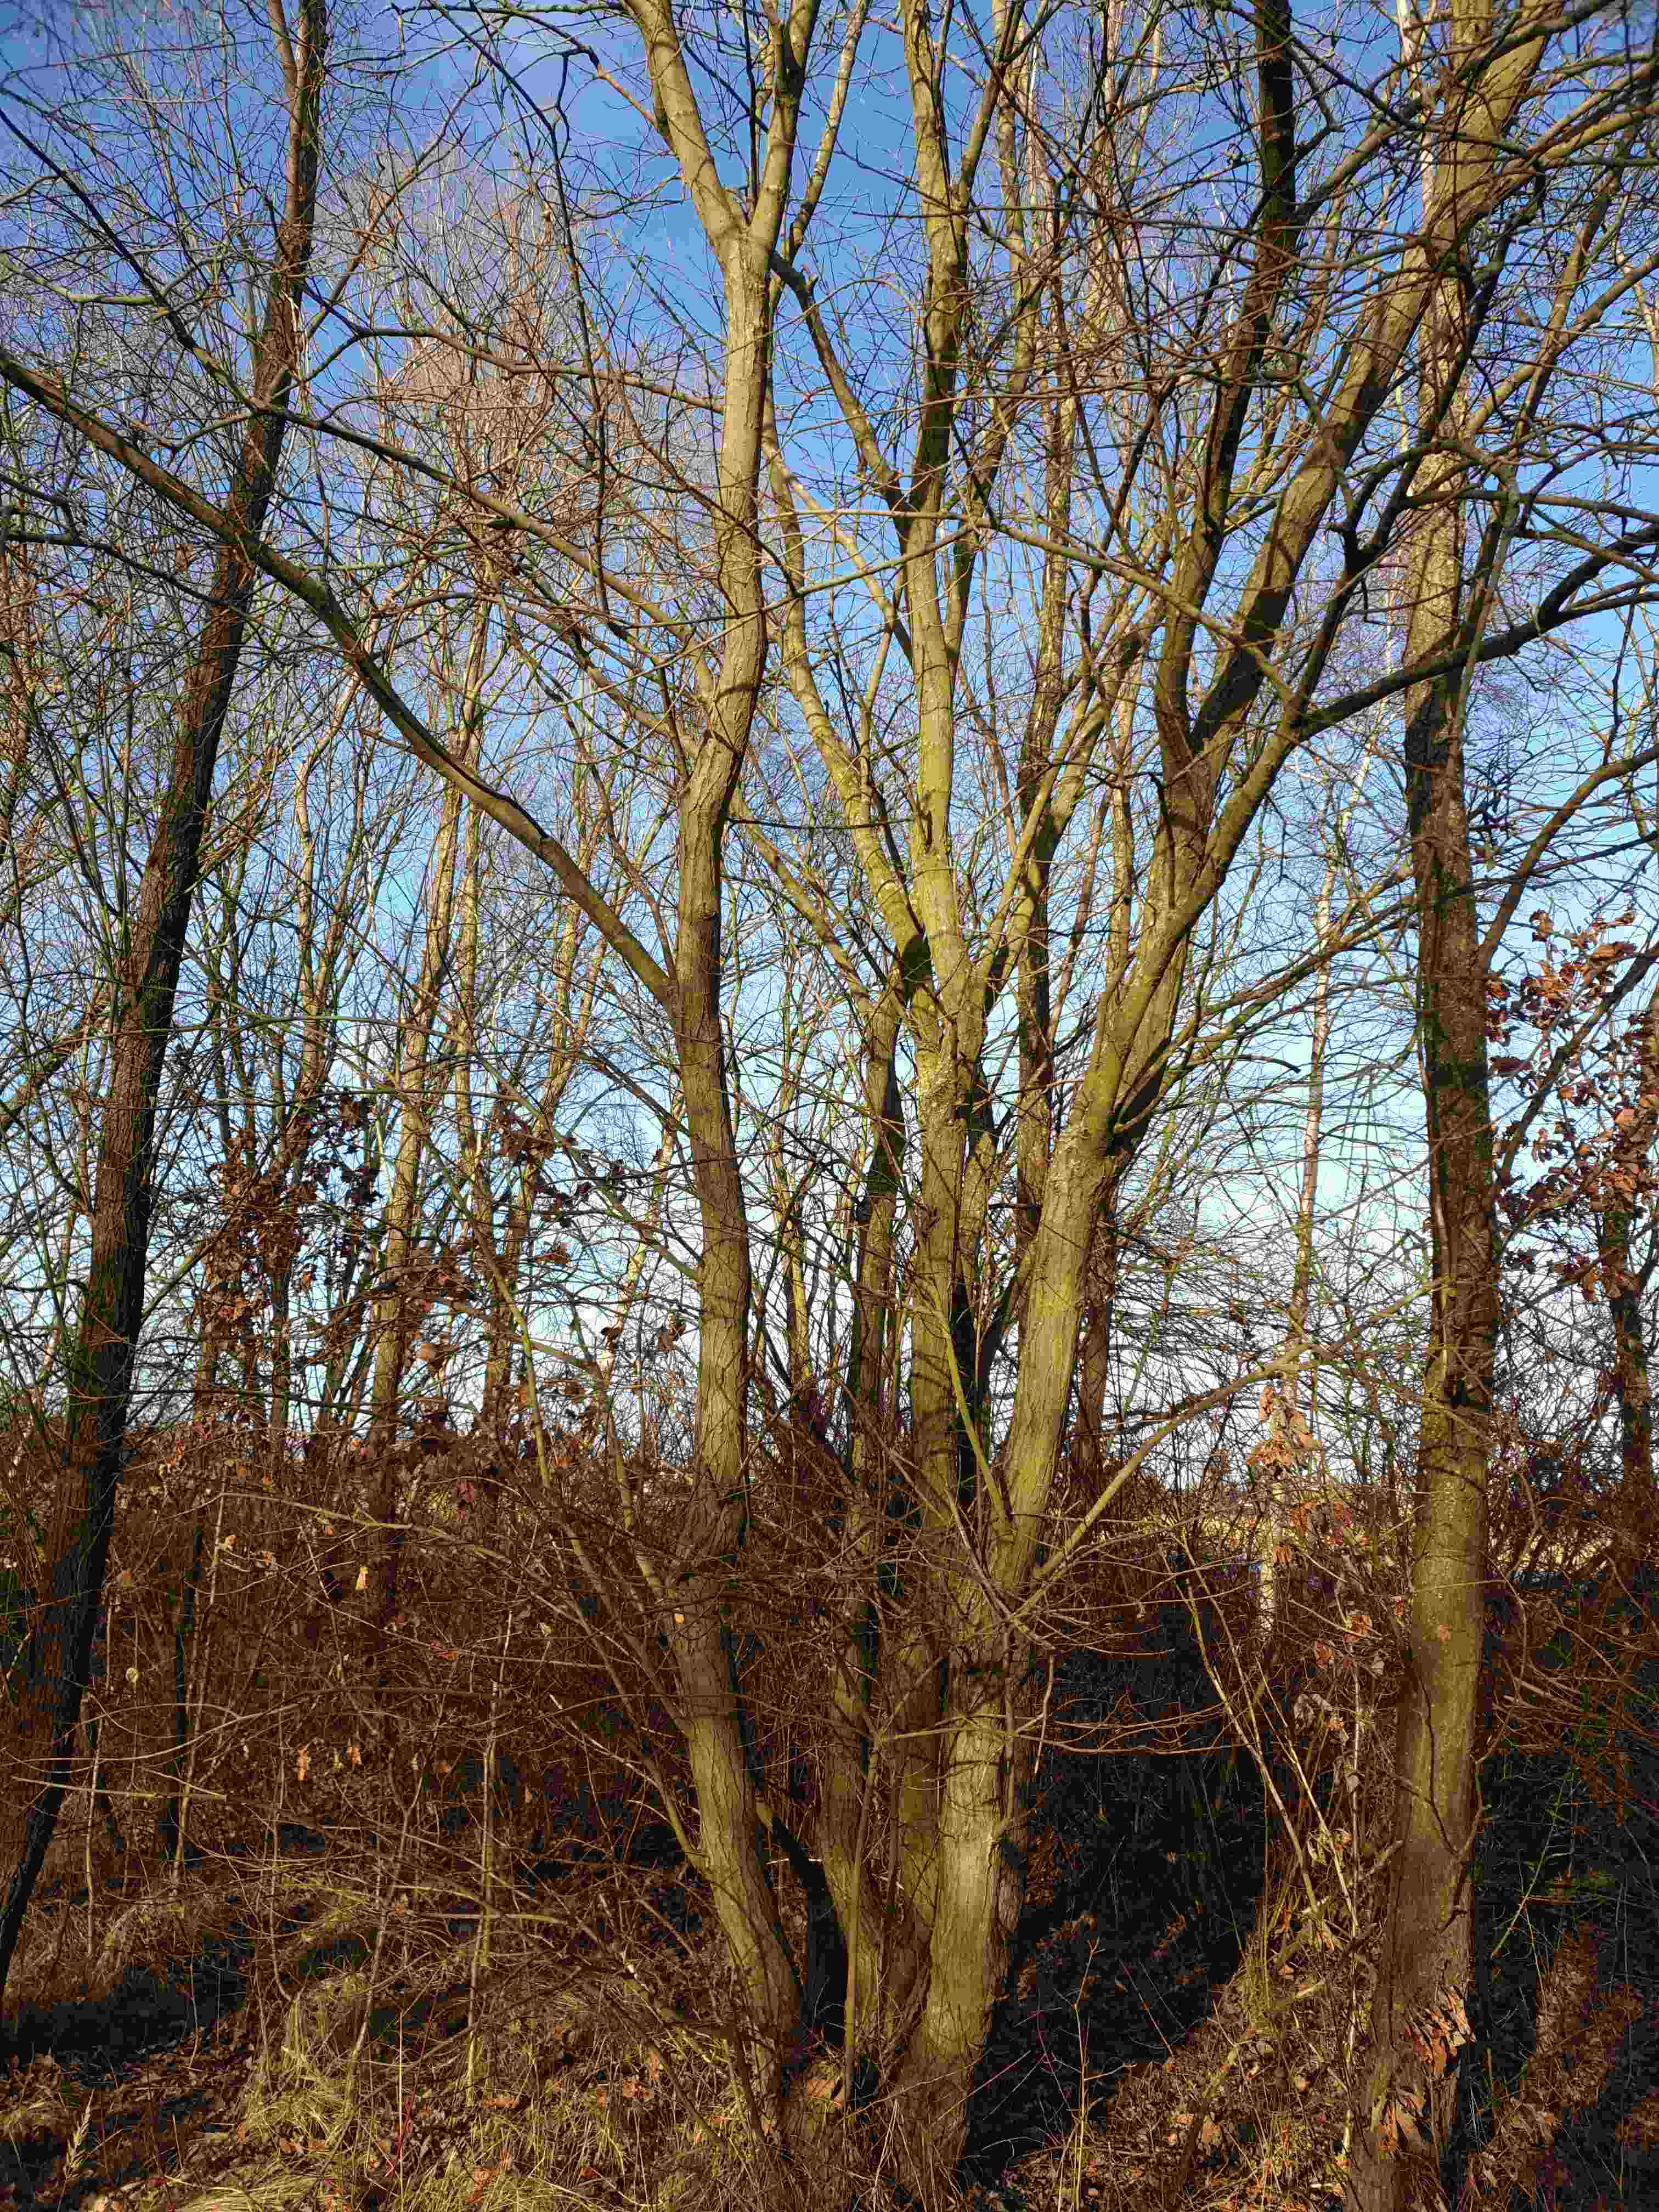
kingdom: Fungi
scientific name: Fungi
